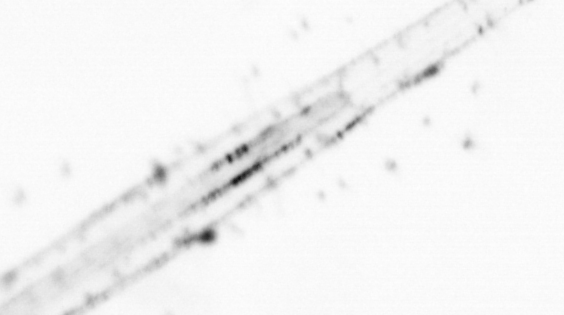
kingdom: Animalia
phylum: Chaetognatha
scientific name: Chaetognatha
